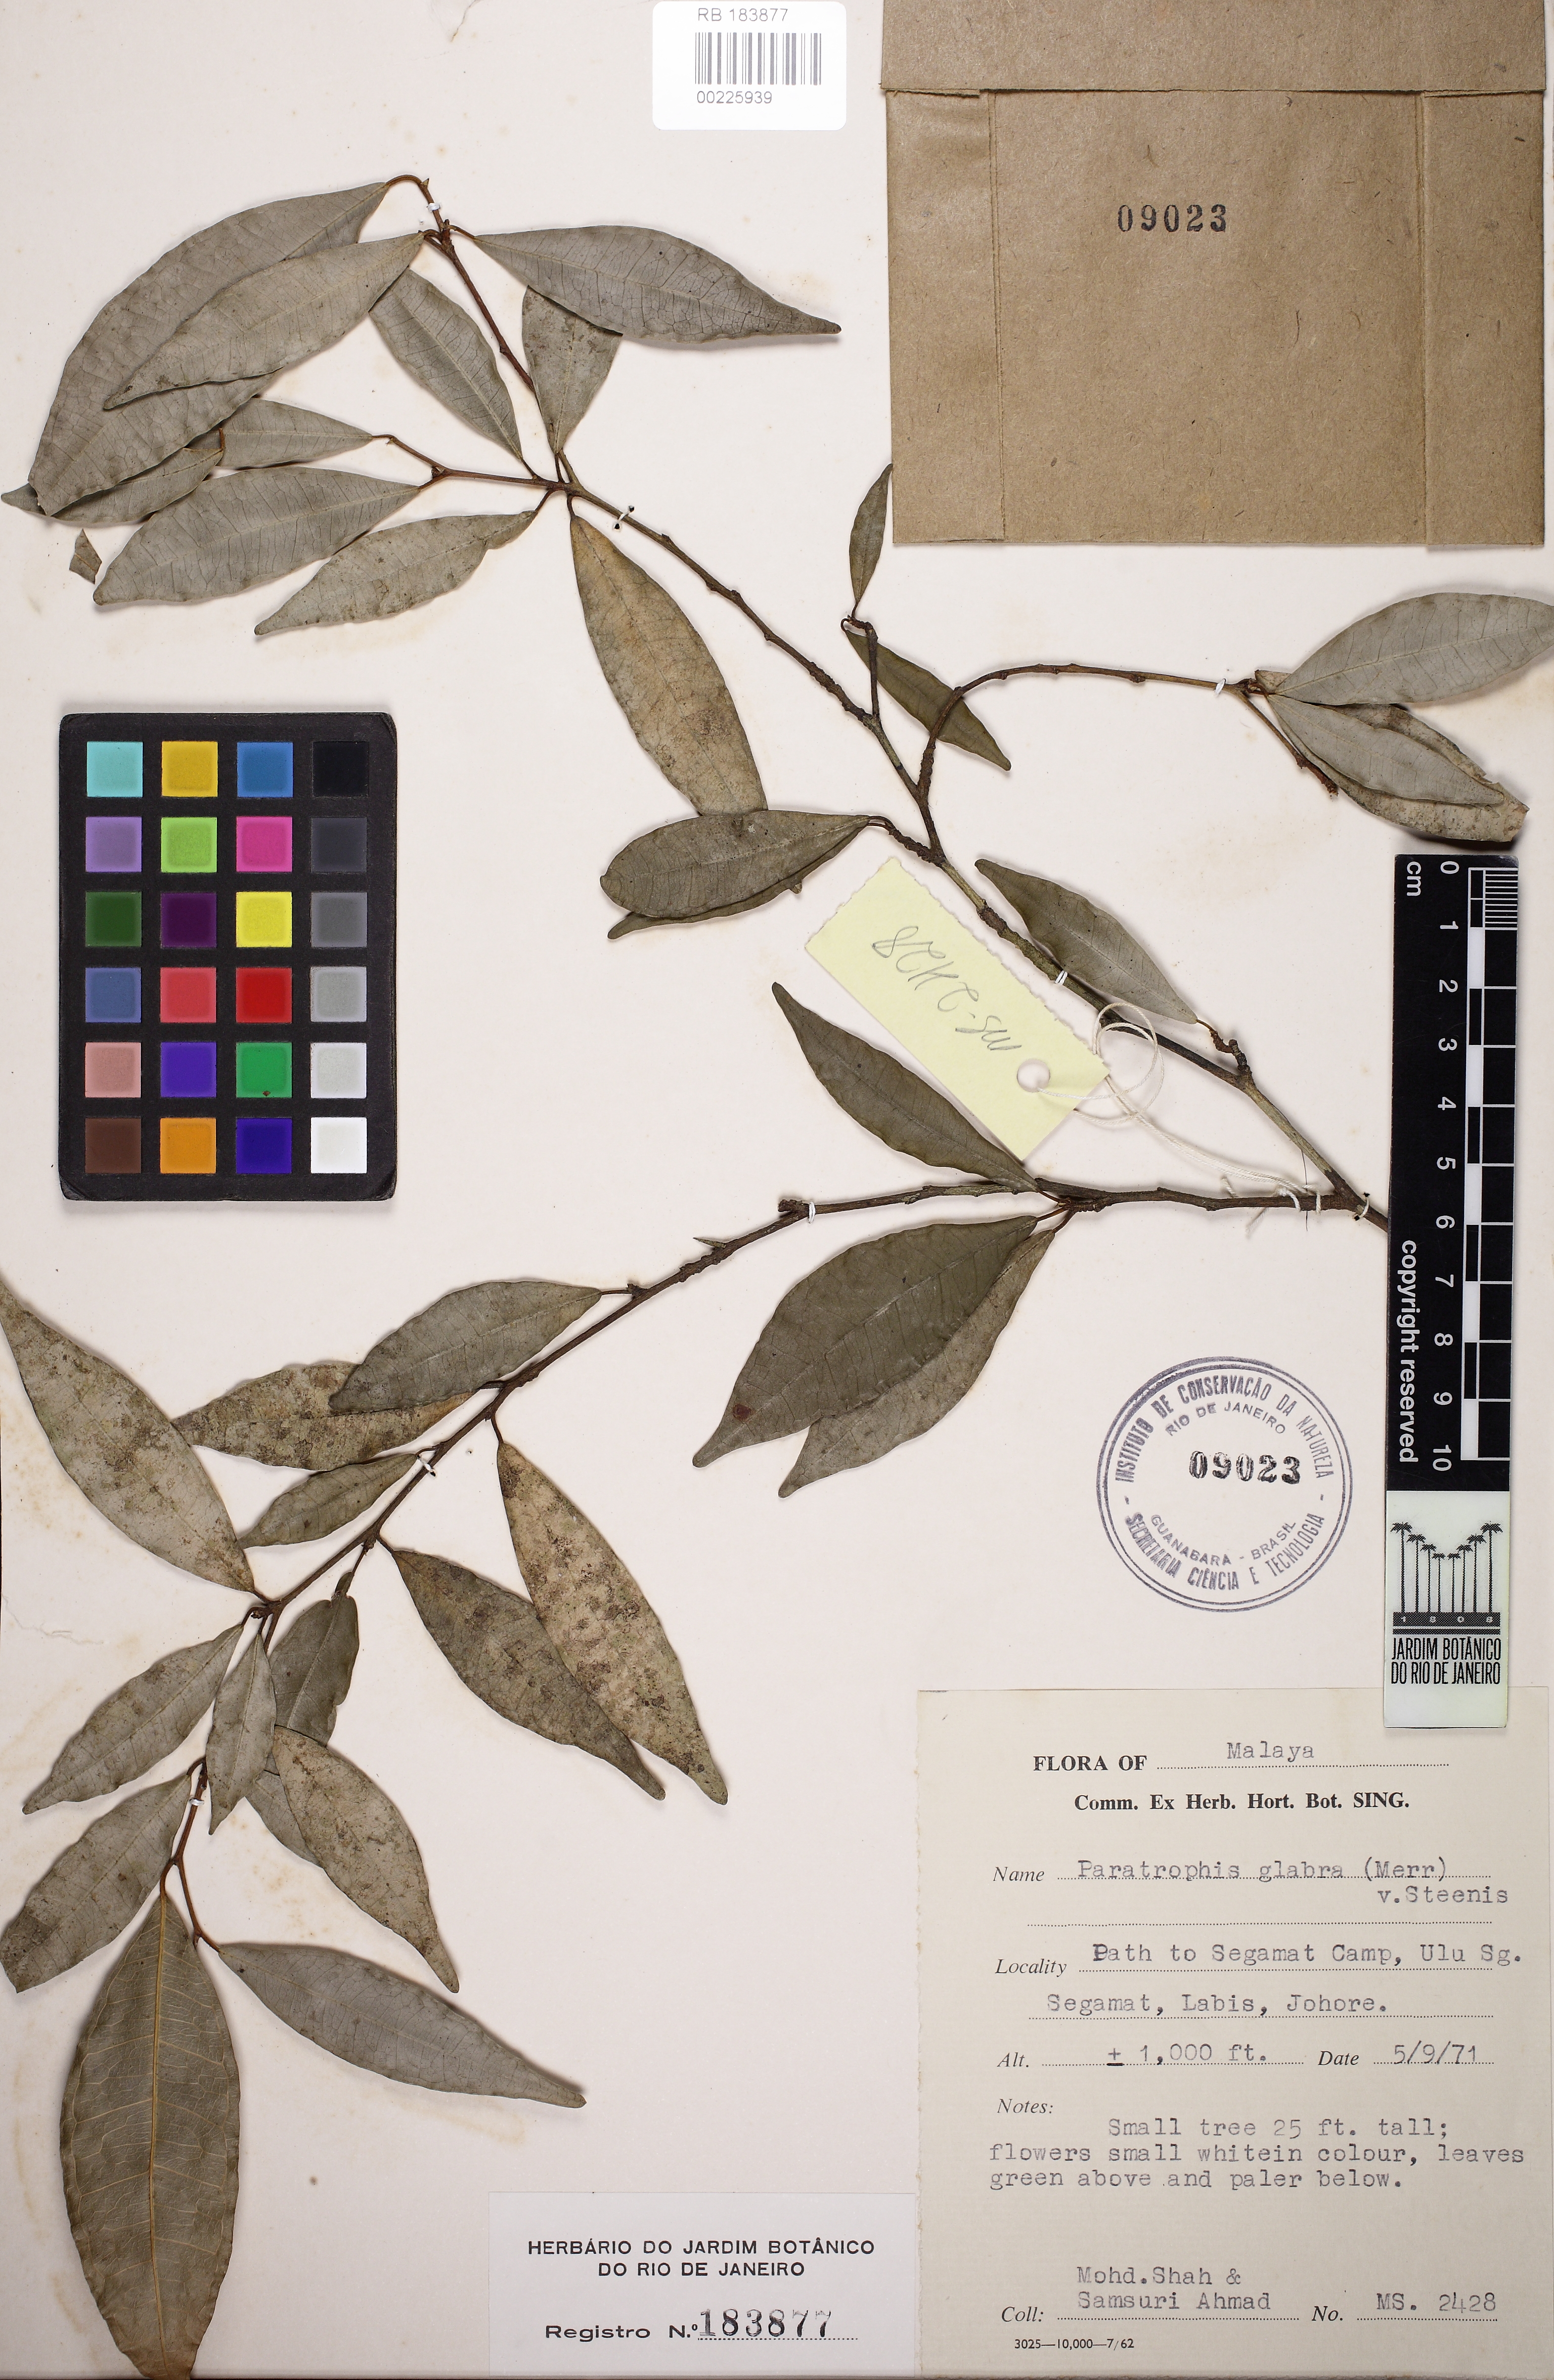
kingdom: Plantae
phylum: Tracheophyta
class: Magnoliopsida
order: Rosales
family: Moraceae
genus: Paratrophis
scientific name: Paratrophis glabra
